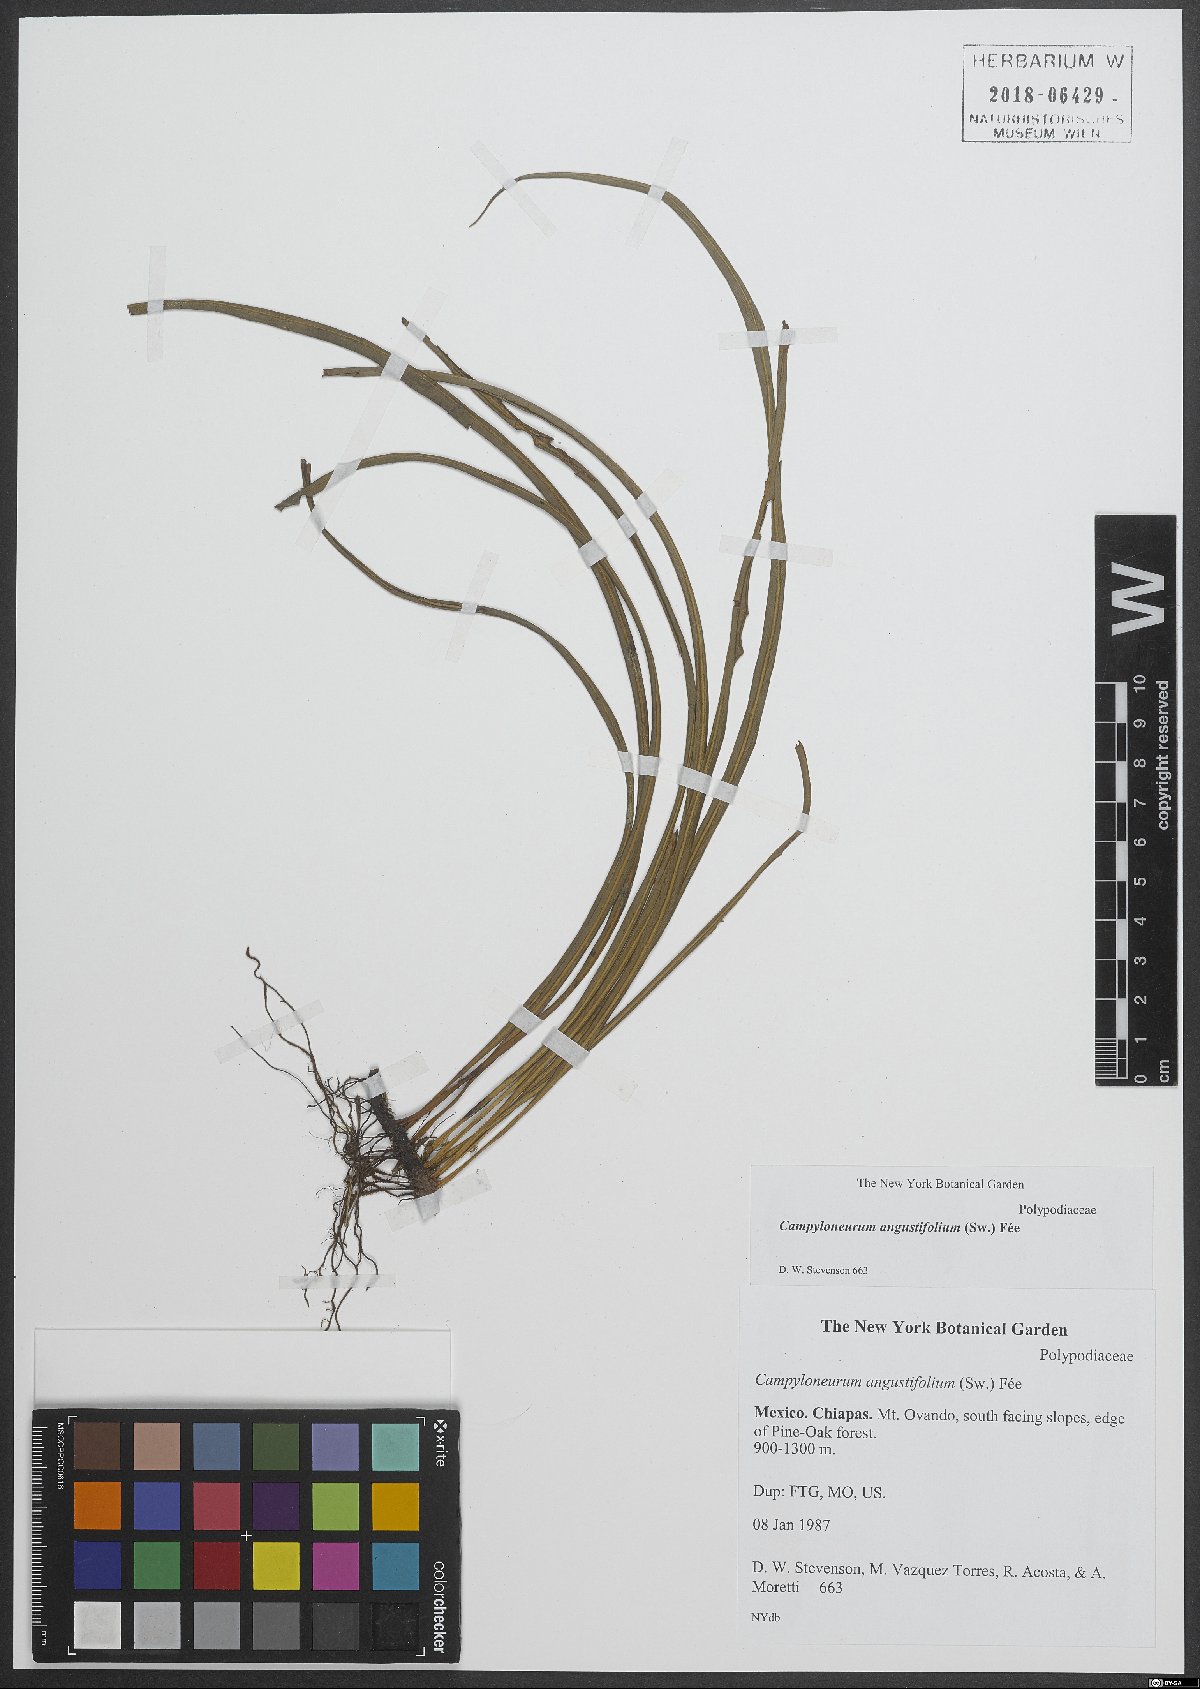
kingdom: Plantae
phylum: Tracheophyta
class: Polypodiopsida
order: Polypodiales
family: Polypodiaceae
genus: Campyloneurum
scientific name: Campyloneurum angustifolium
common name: Narrow-leaf strap fern
